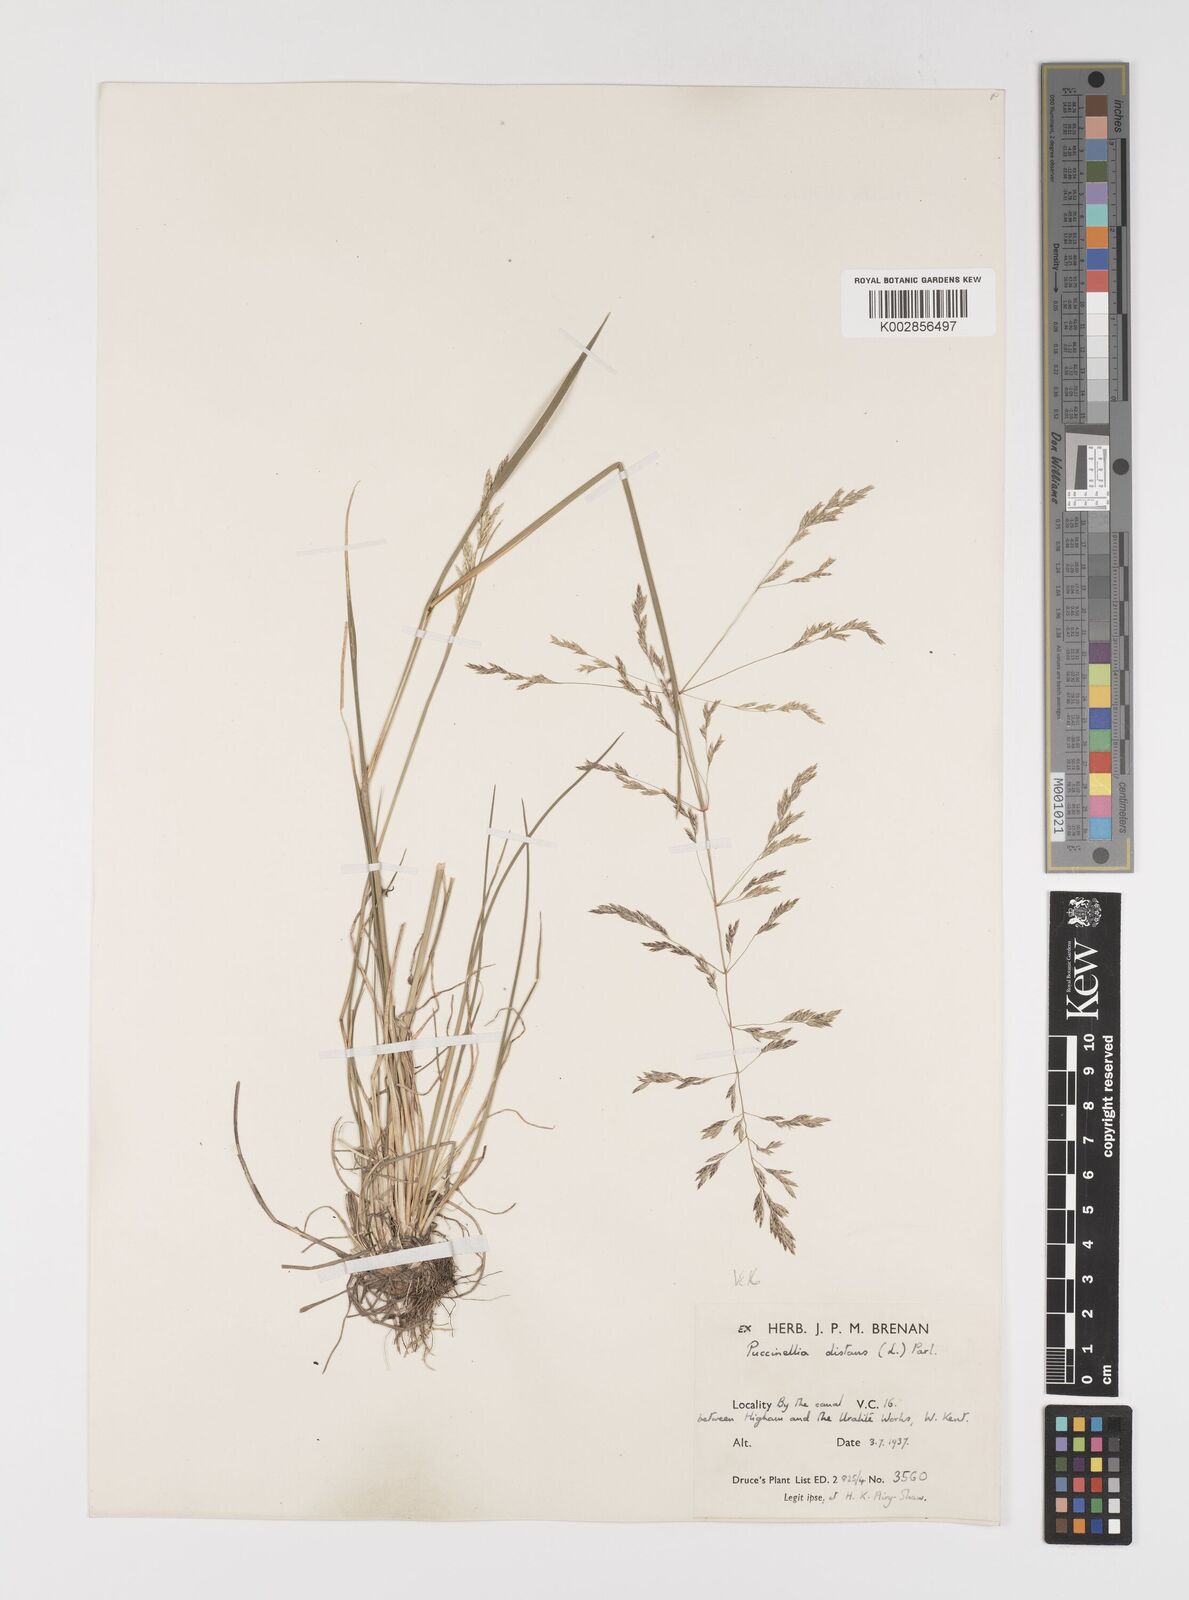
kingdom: Plantae
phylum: Tracheophyta
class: Liliopsida
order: Poales
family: Poaceae
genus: Puccinellia
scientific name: Puccinellia distans
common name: Weeping alkaligrass
